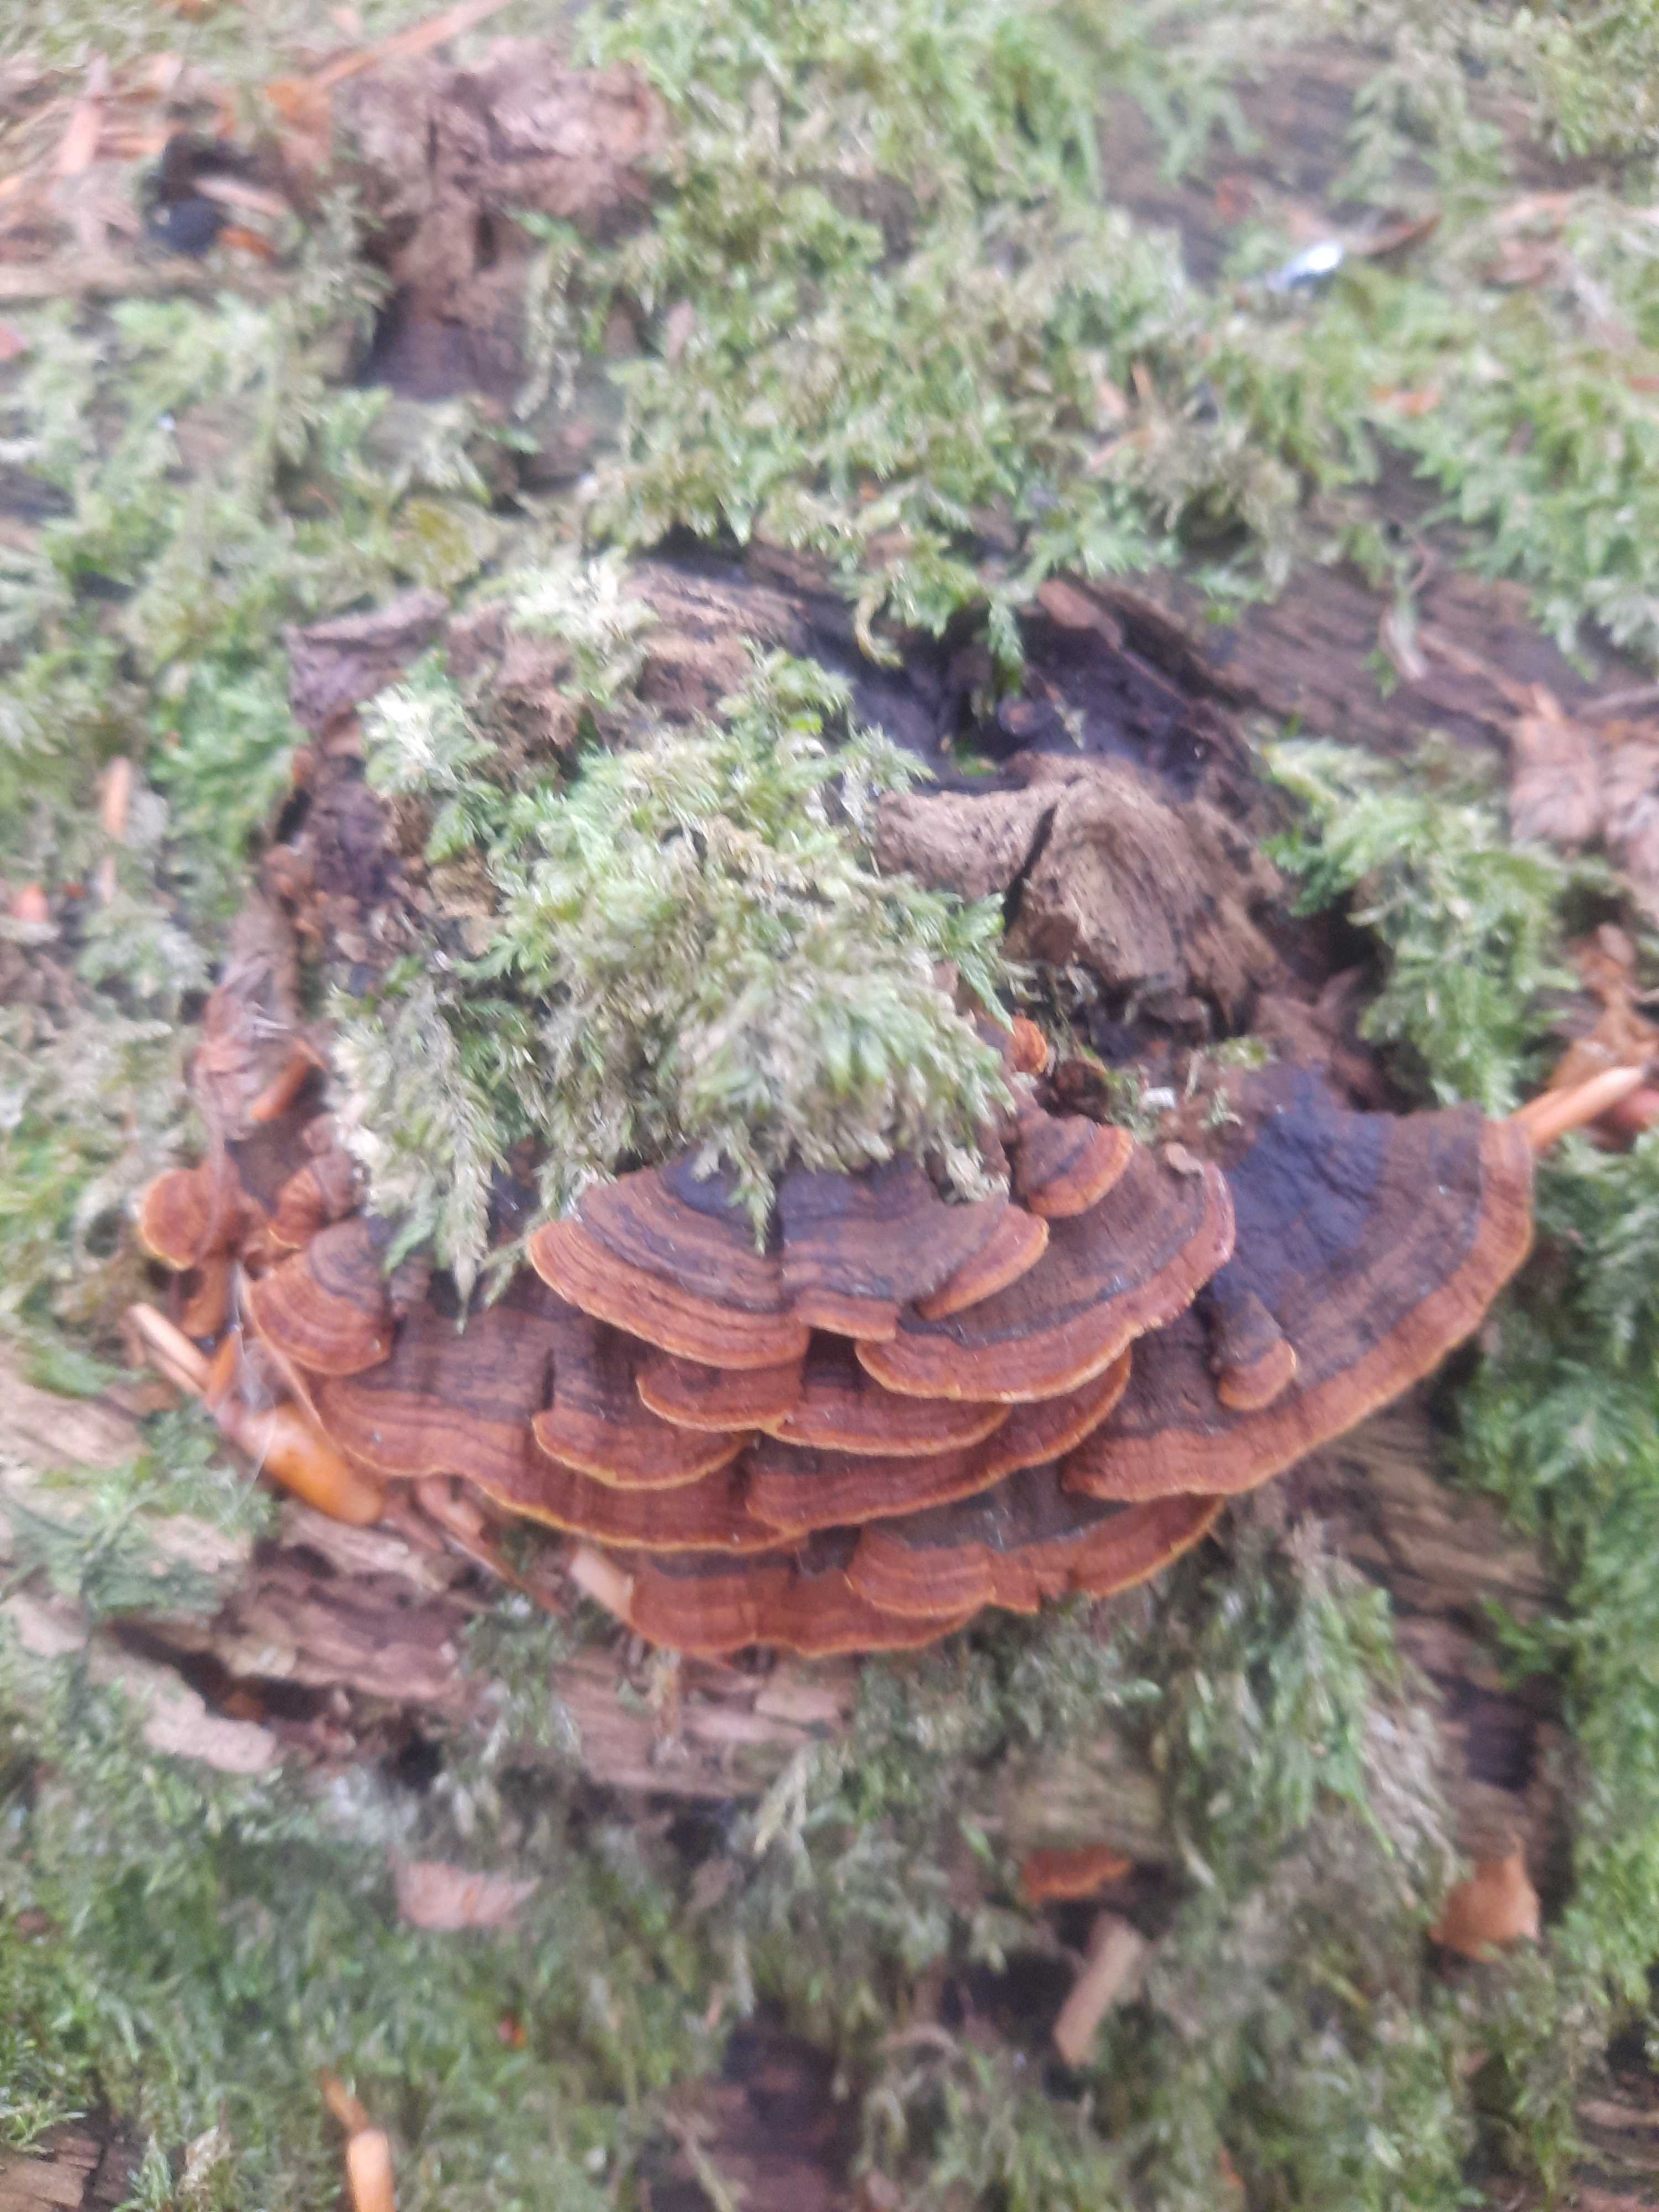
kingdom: Fungi
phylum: Basidiomycota
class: Agaricomycetes
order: Hymenochaetales
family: Hymenochaetaceae
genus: Hymenochaete
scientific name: Hymenochaete rubiginosa
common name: stiv ruslædersvamp
